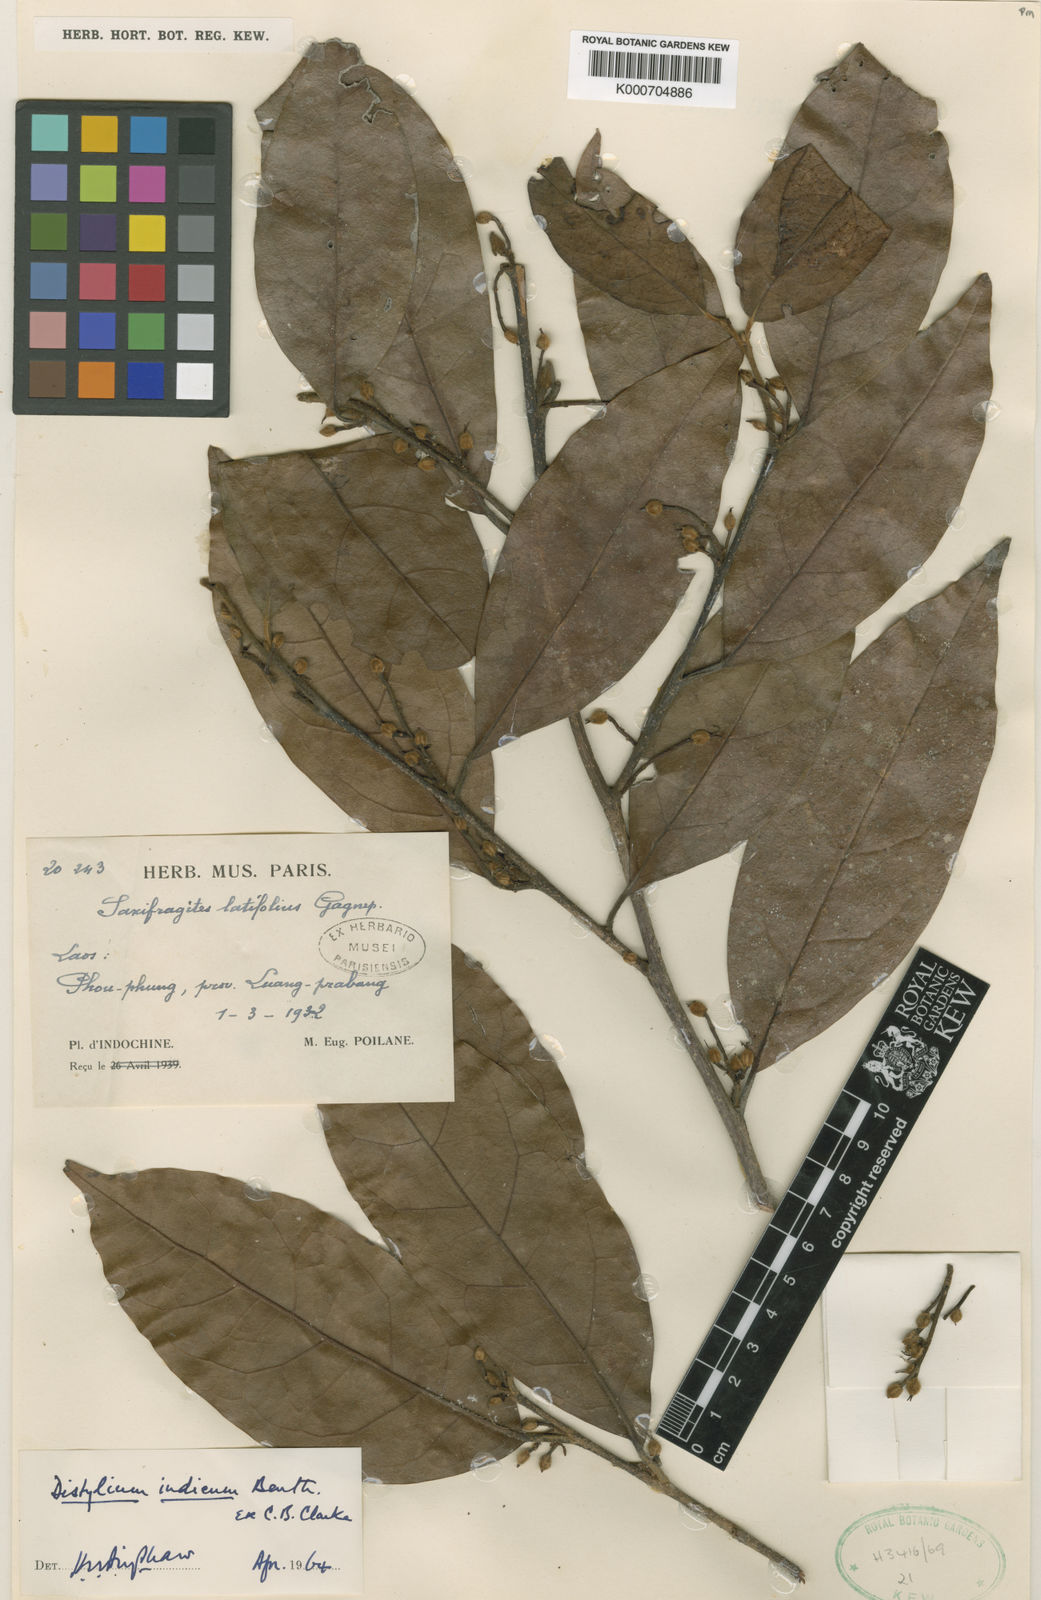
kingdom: Plantae
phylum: Tracheophyta
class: Magnoliopsida
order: Saxifragales
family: Hamamelidaceae
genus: Distylium
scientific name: Distylium indicum
